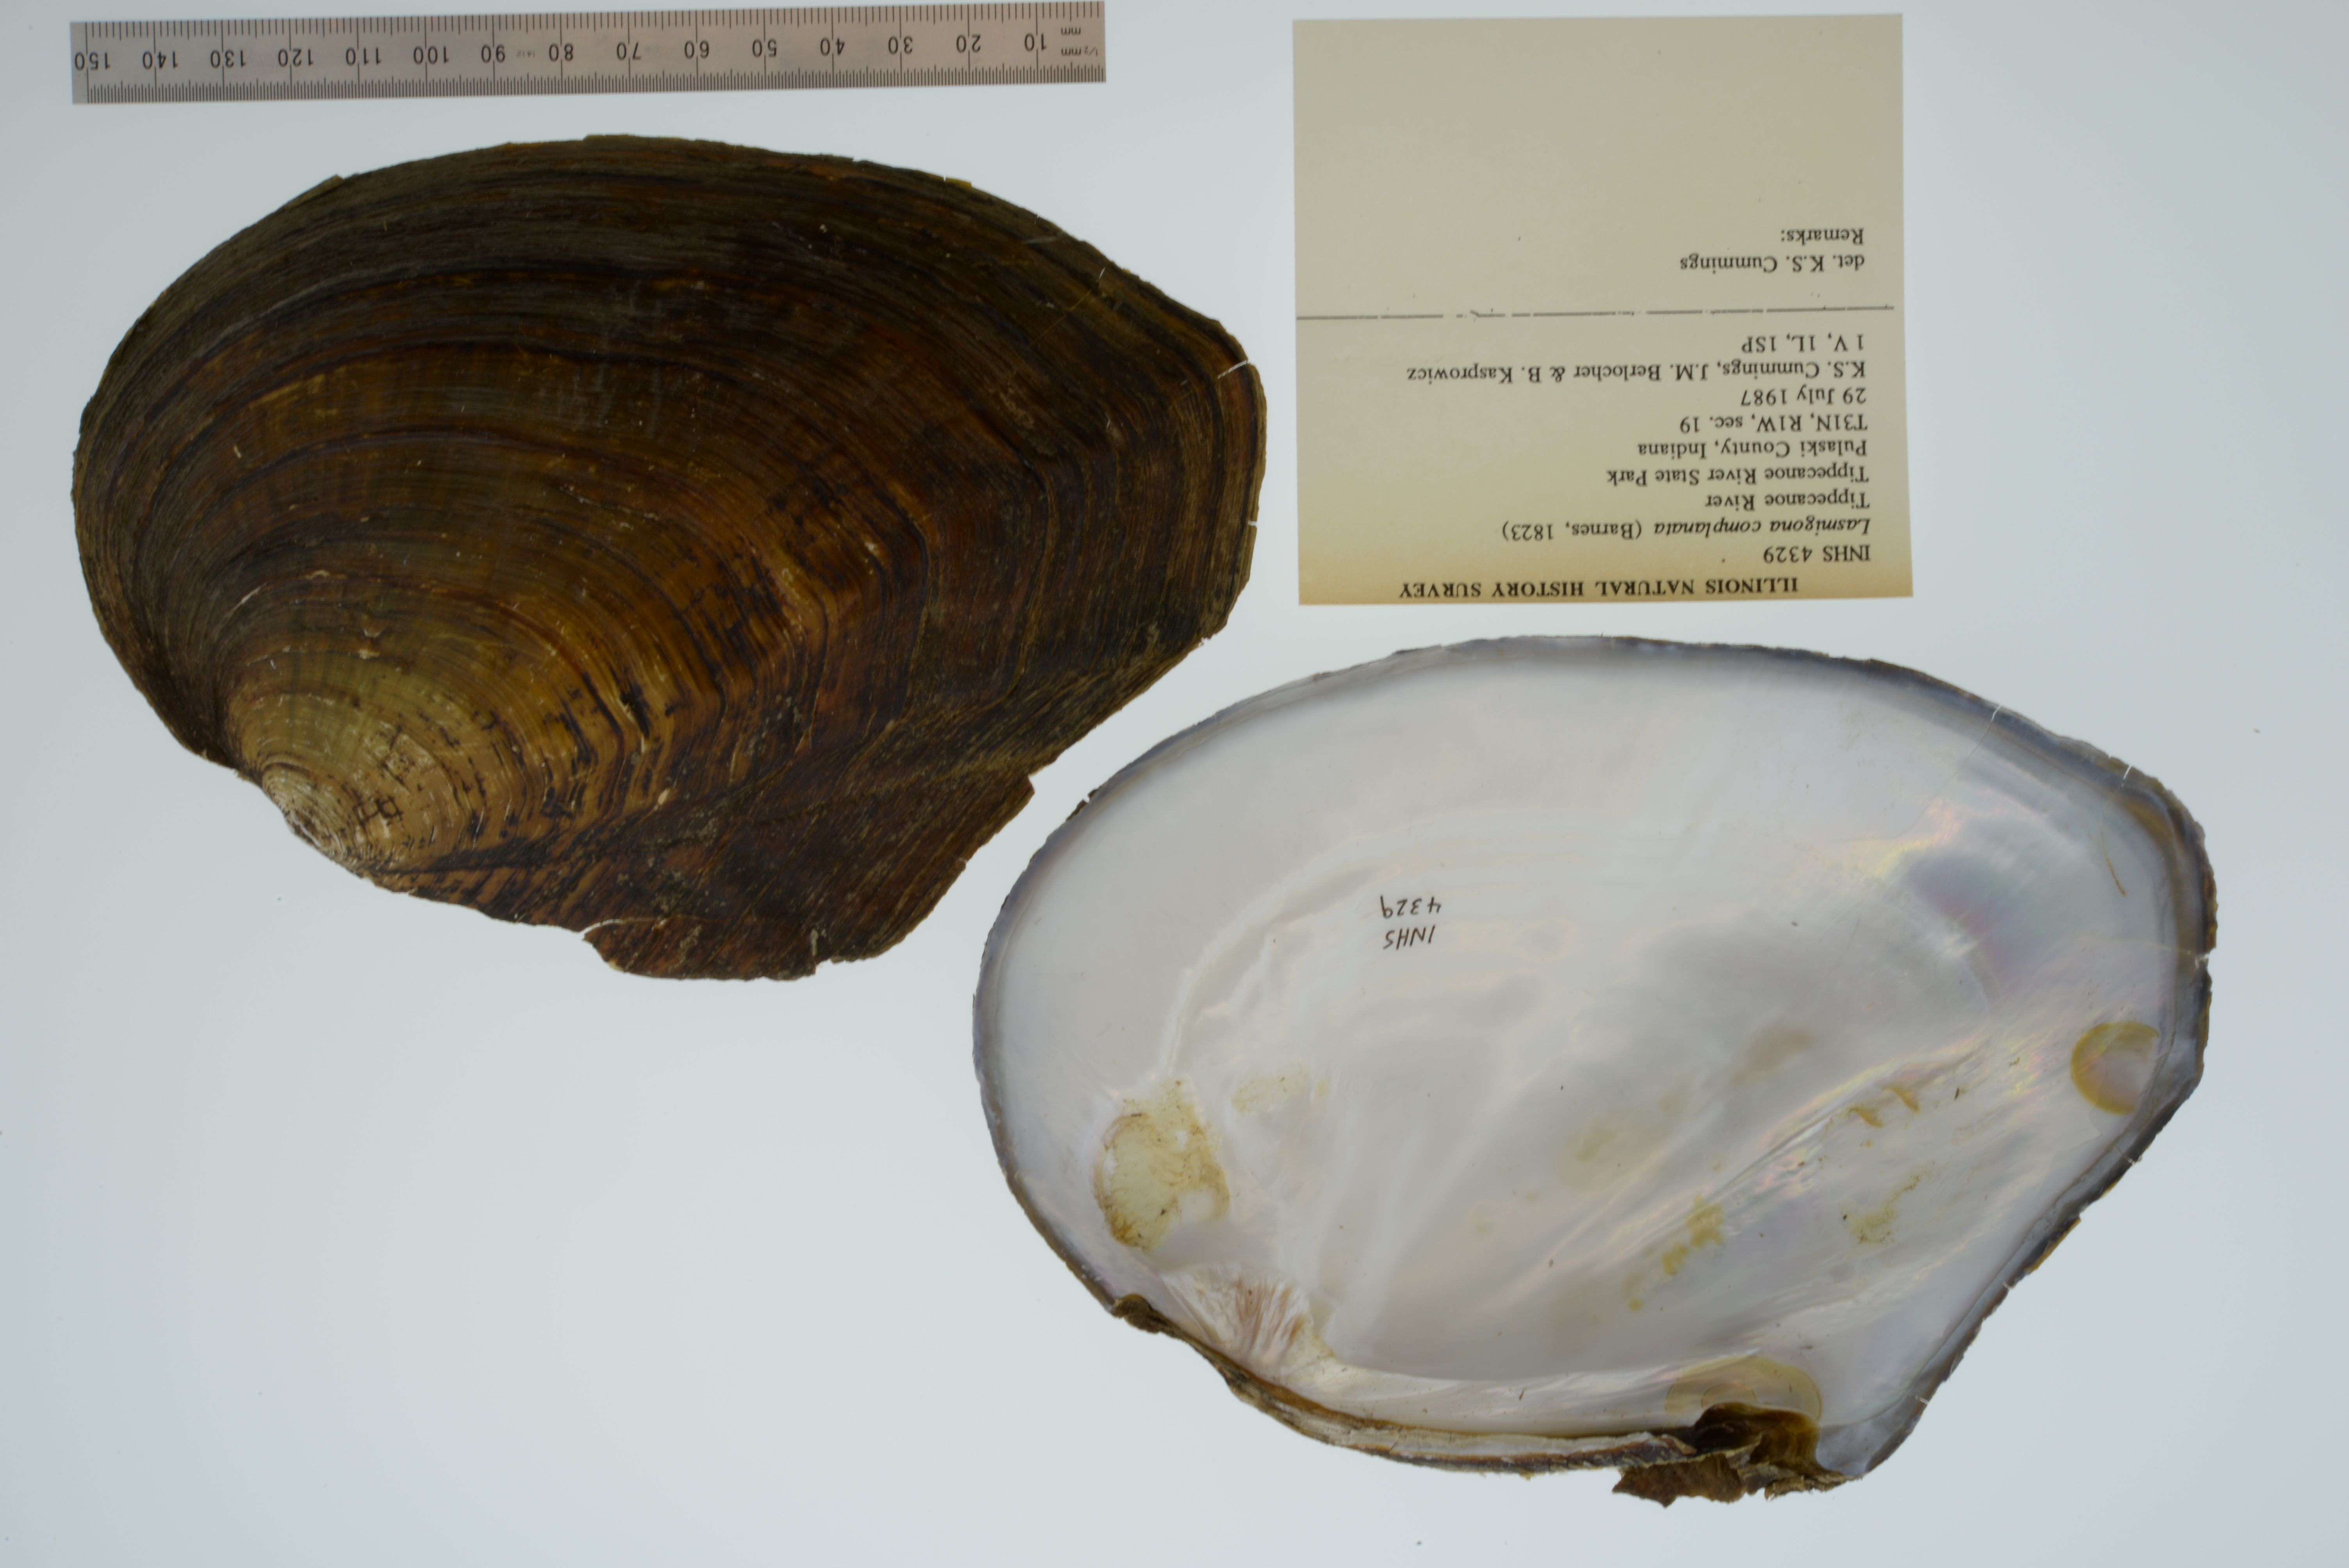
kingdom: Animalia
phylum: Mollusca
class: Bivalvia
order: Unionida
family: Unionidae
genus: Lasmigona
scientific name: Lasmigona complanata
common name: White heelsplitter
